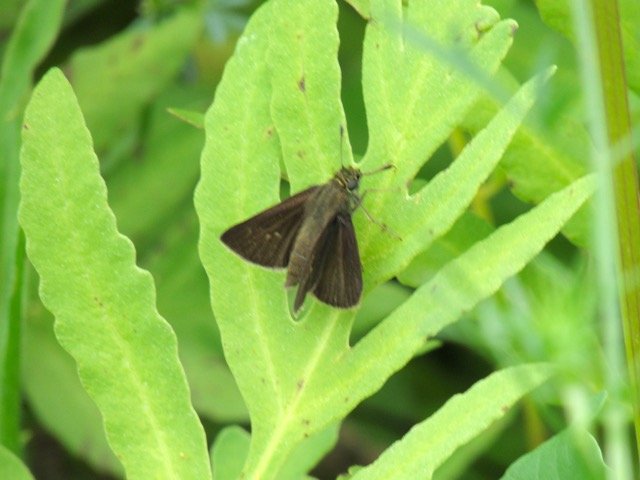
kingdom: Animalia
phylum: Arthropoda
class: Insecta
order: Lepidoptera
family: Hesperiidae
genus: Euphyes
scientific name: Euphyes vestris
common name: Dun Skipper
